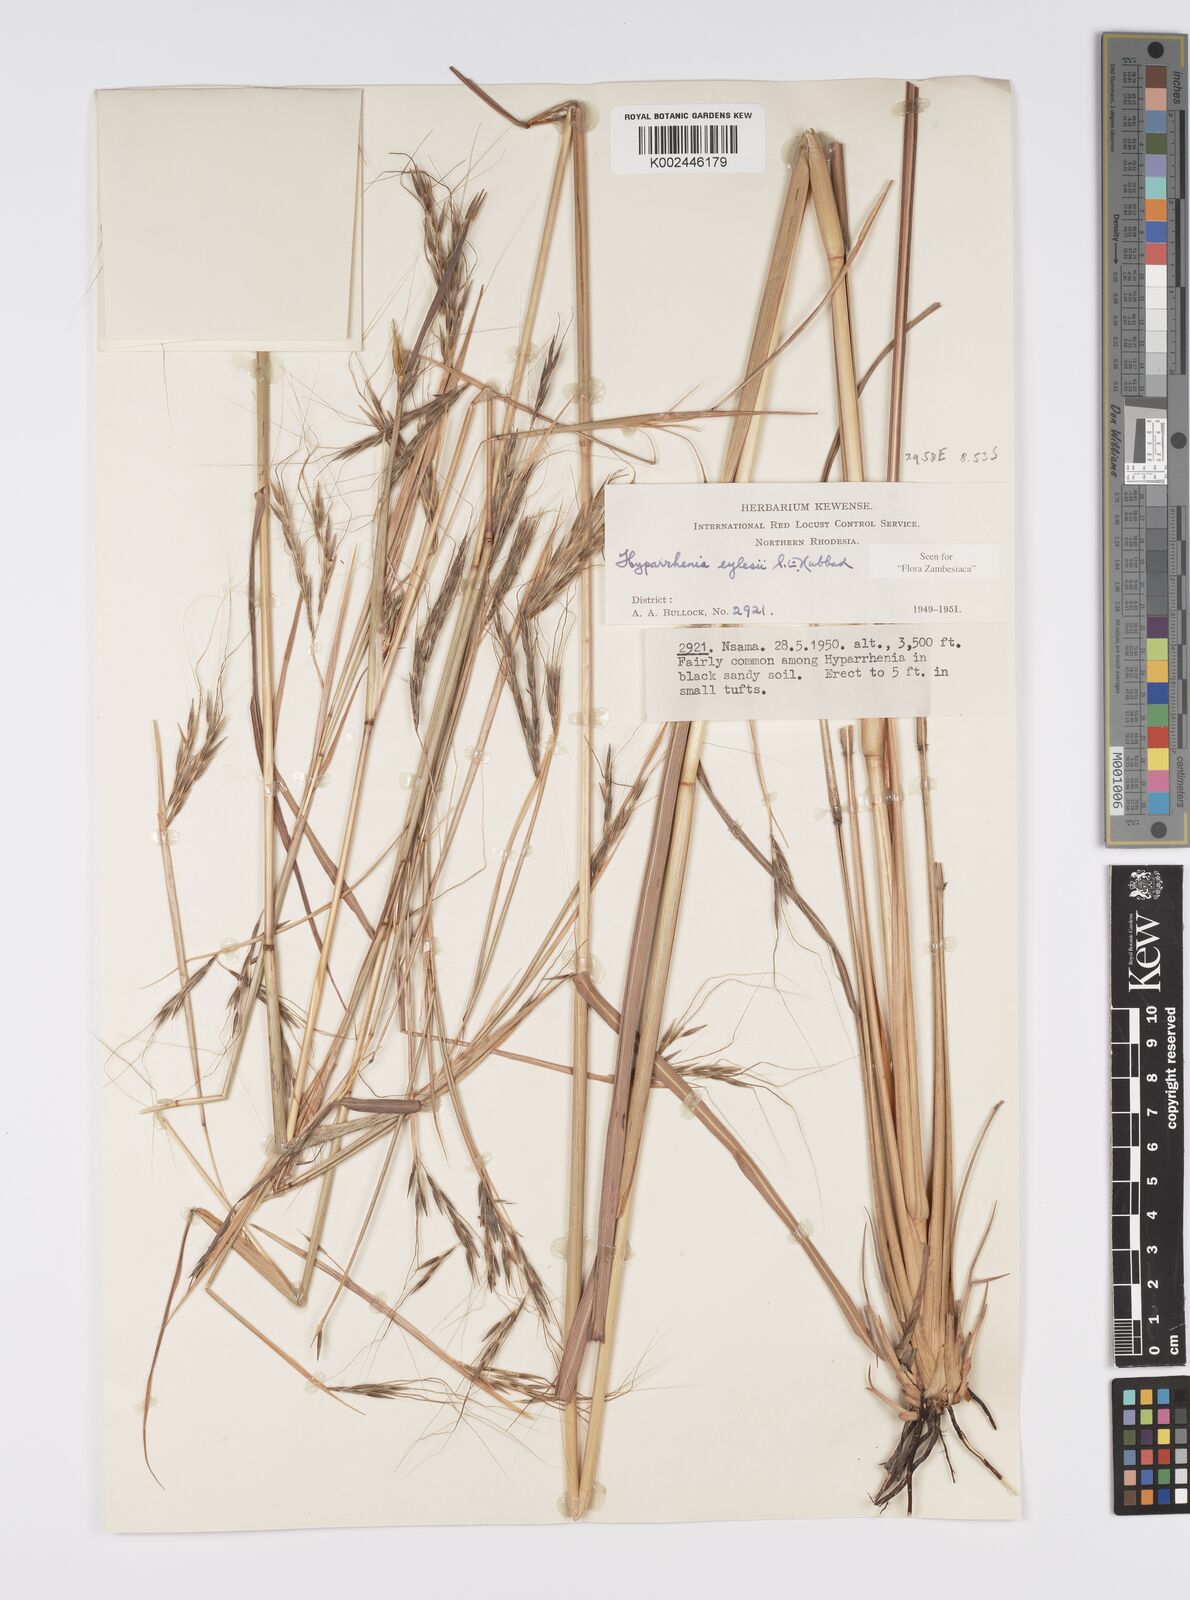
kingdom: Plantae
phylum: Tracheophyta
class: Liliopsida
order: Poales
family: Poaceae
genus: Elymandra
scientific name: Elymandra grallata
